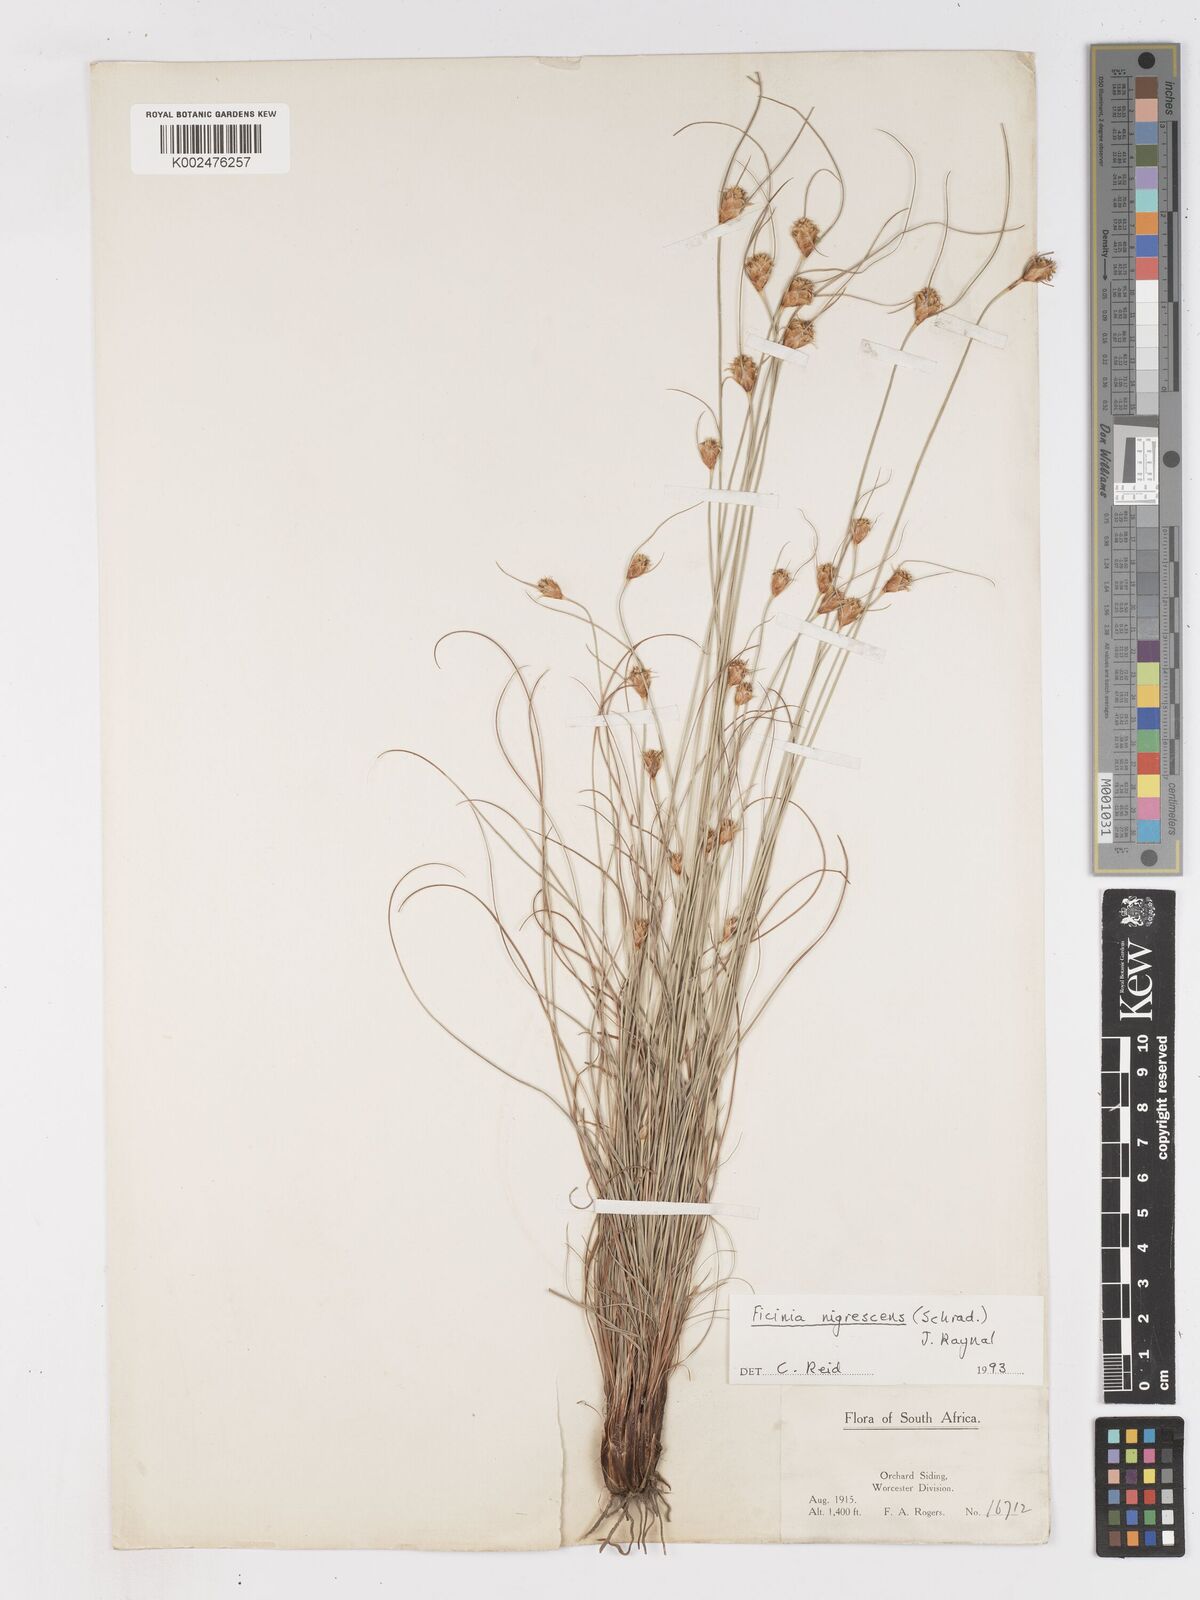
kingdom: Plantae
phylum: Tracheophyta
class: Liliopsida
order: Poales
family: Cyperaceae
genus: Ficinia
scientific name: Ficinia nigrescens
